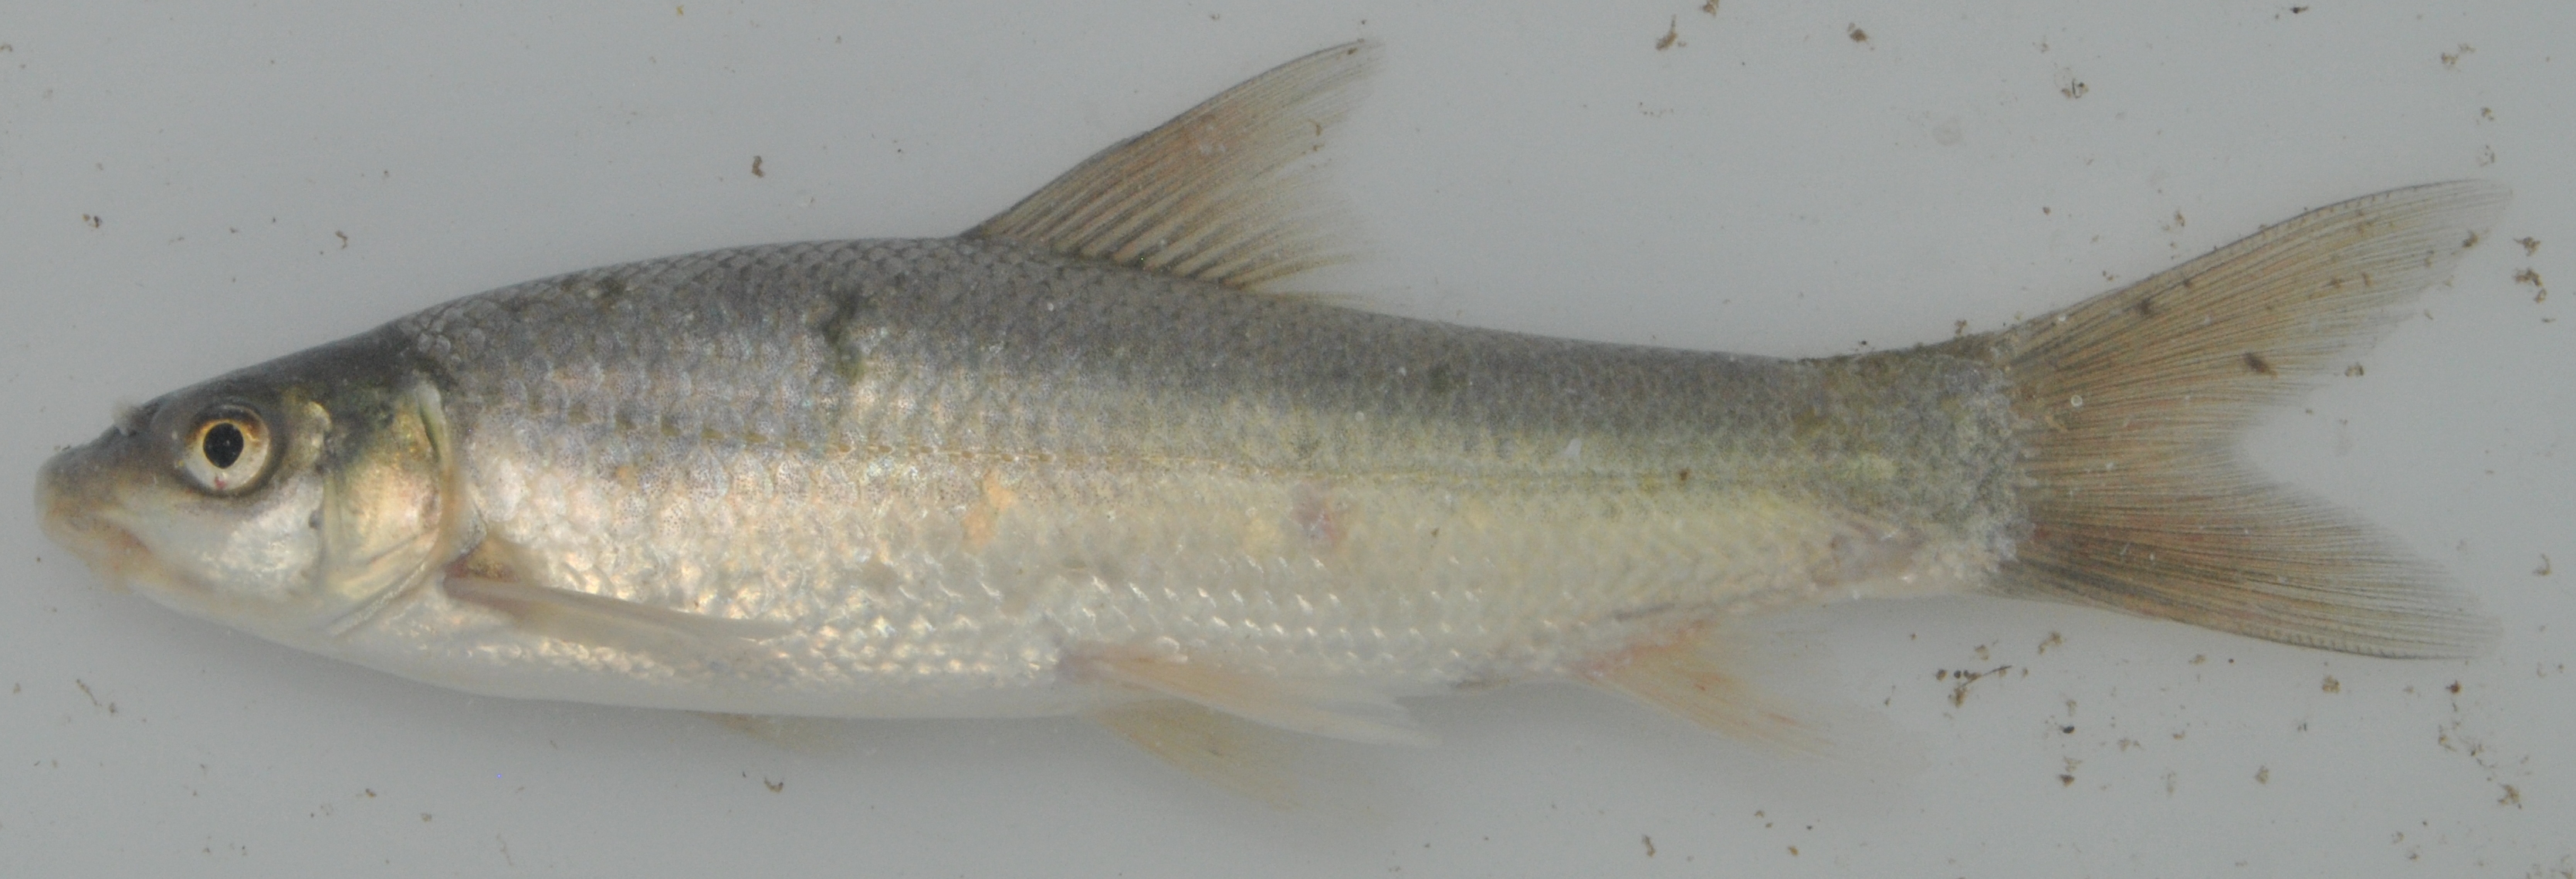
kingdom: Animalia
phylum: Chordata
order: Cypriniformes
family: Cyprinidae
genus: Labeo
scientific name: Labeo rubromaculatus
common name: Tugela labeo
